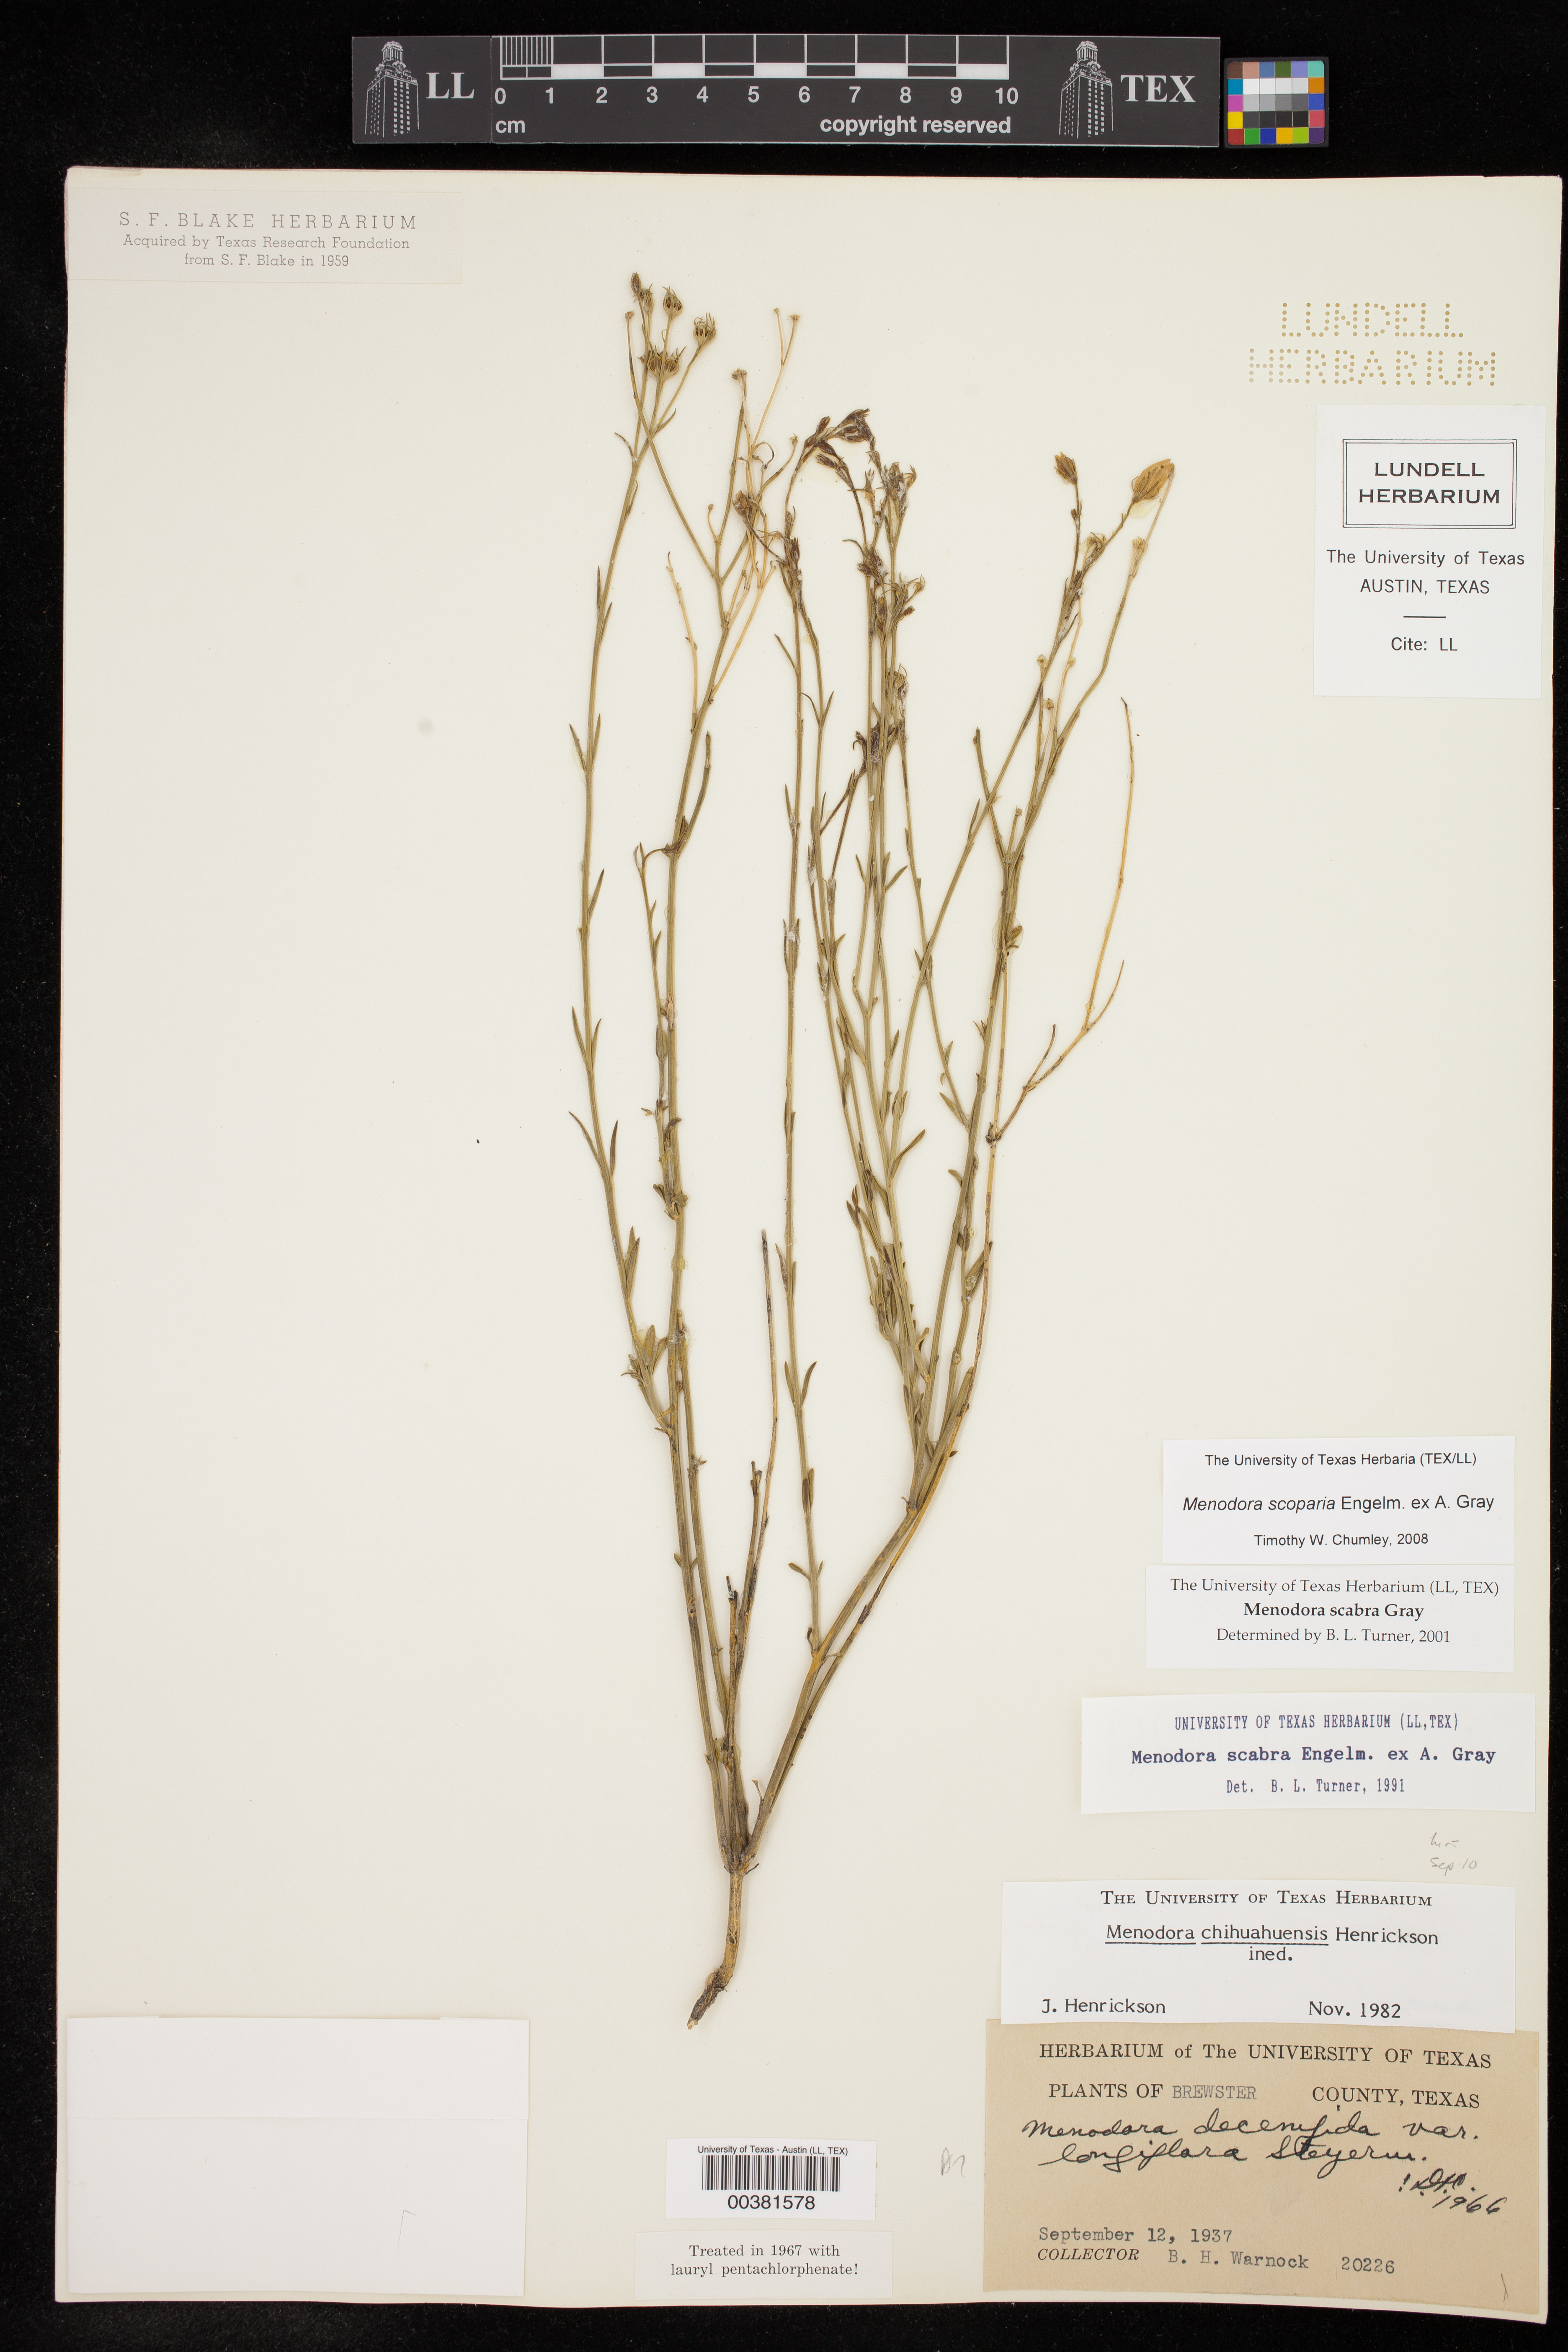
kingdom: Plantae
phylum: Tracheophyta
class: Magnoliopsida
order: Lamiales
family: Oleaceae
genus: Menodora
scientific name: Menodora scabra
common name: Rough menodora
